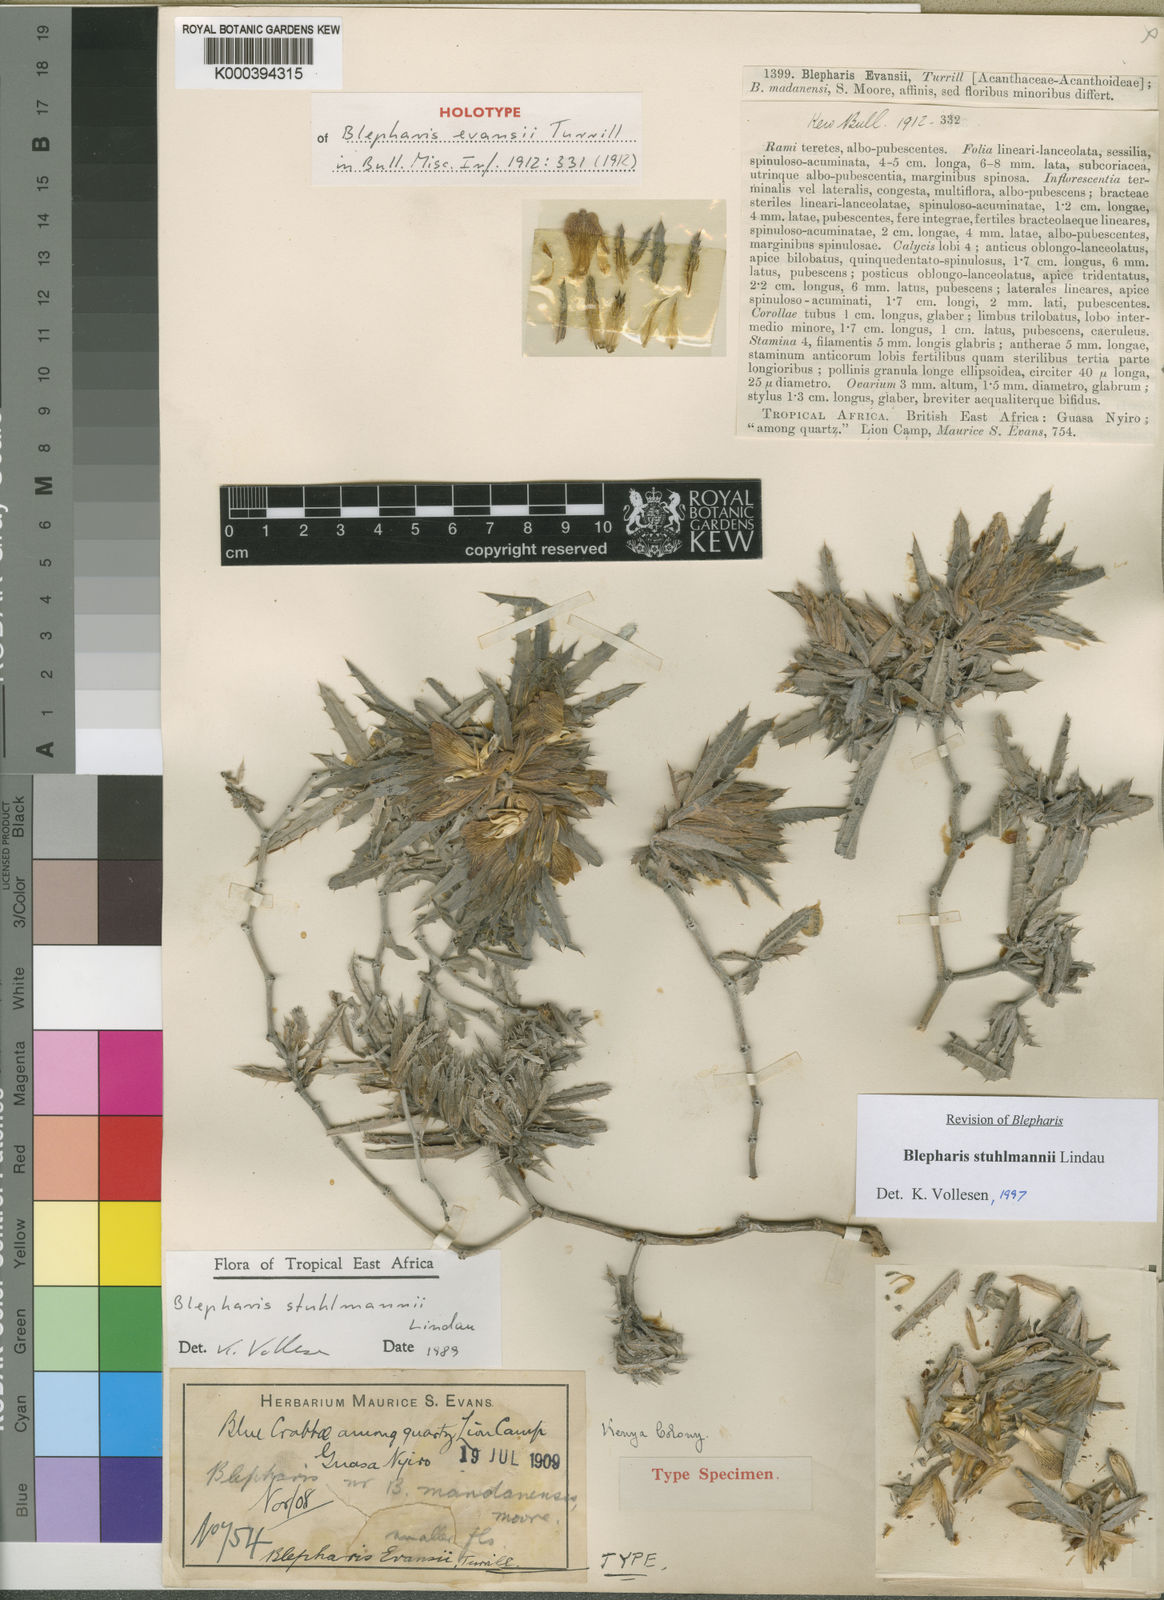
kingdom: Plantae
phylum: Tracheophyta
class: Magnoliopsida
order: Lamiales
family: Acanthaceae
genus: Blepharis
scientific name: Blepharis stuhlmannii
